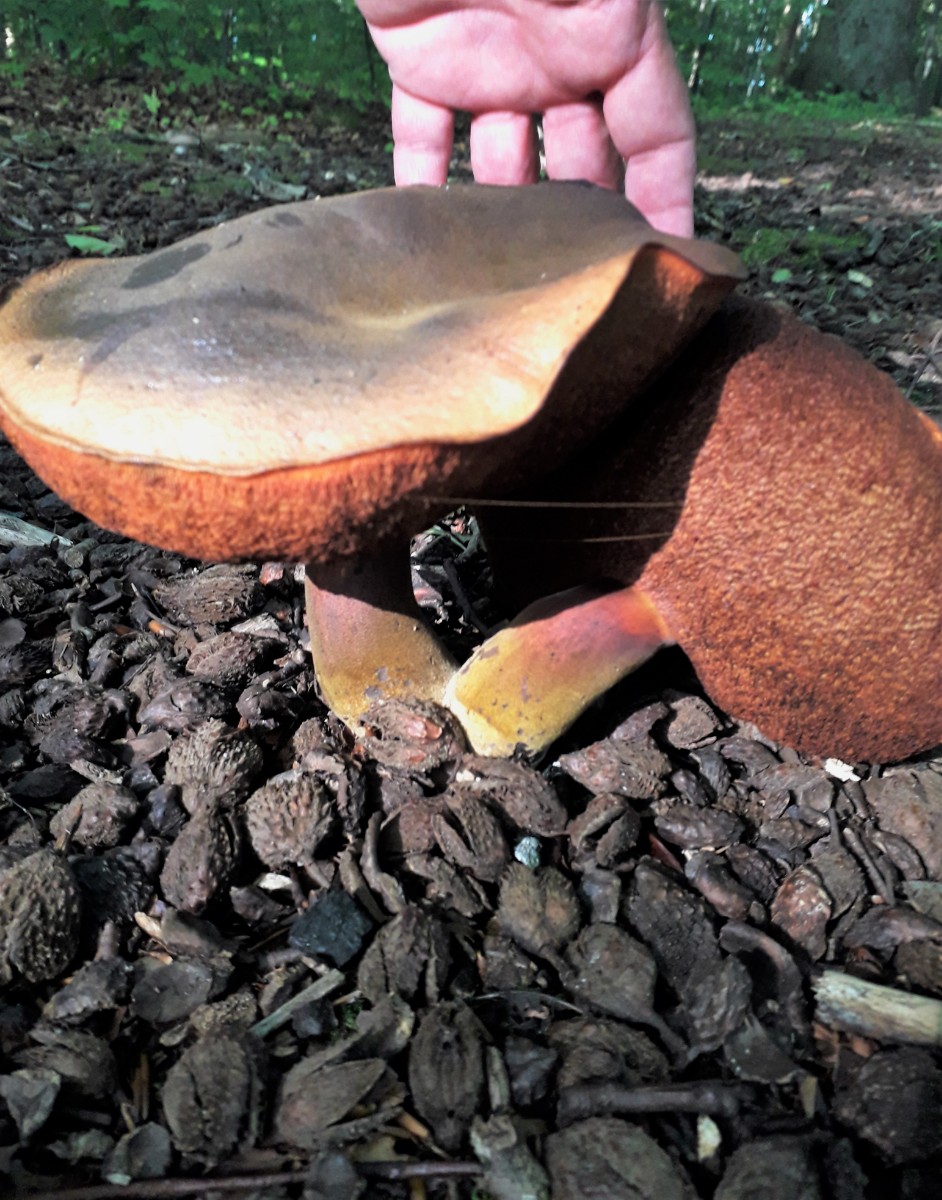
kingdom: Fungi
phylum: Basidiomycota
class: Agaricomycetes
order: Boletales
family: Boletaceae
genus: Neoboletus
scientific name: Neoboletus erythropus
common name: punktstokket indigorørhat
